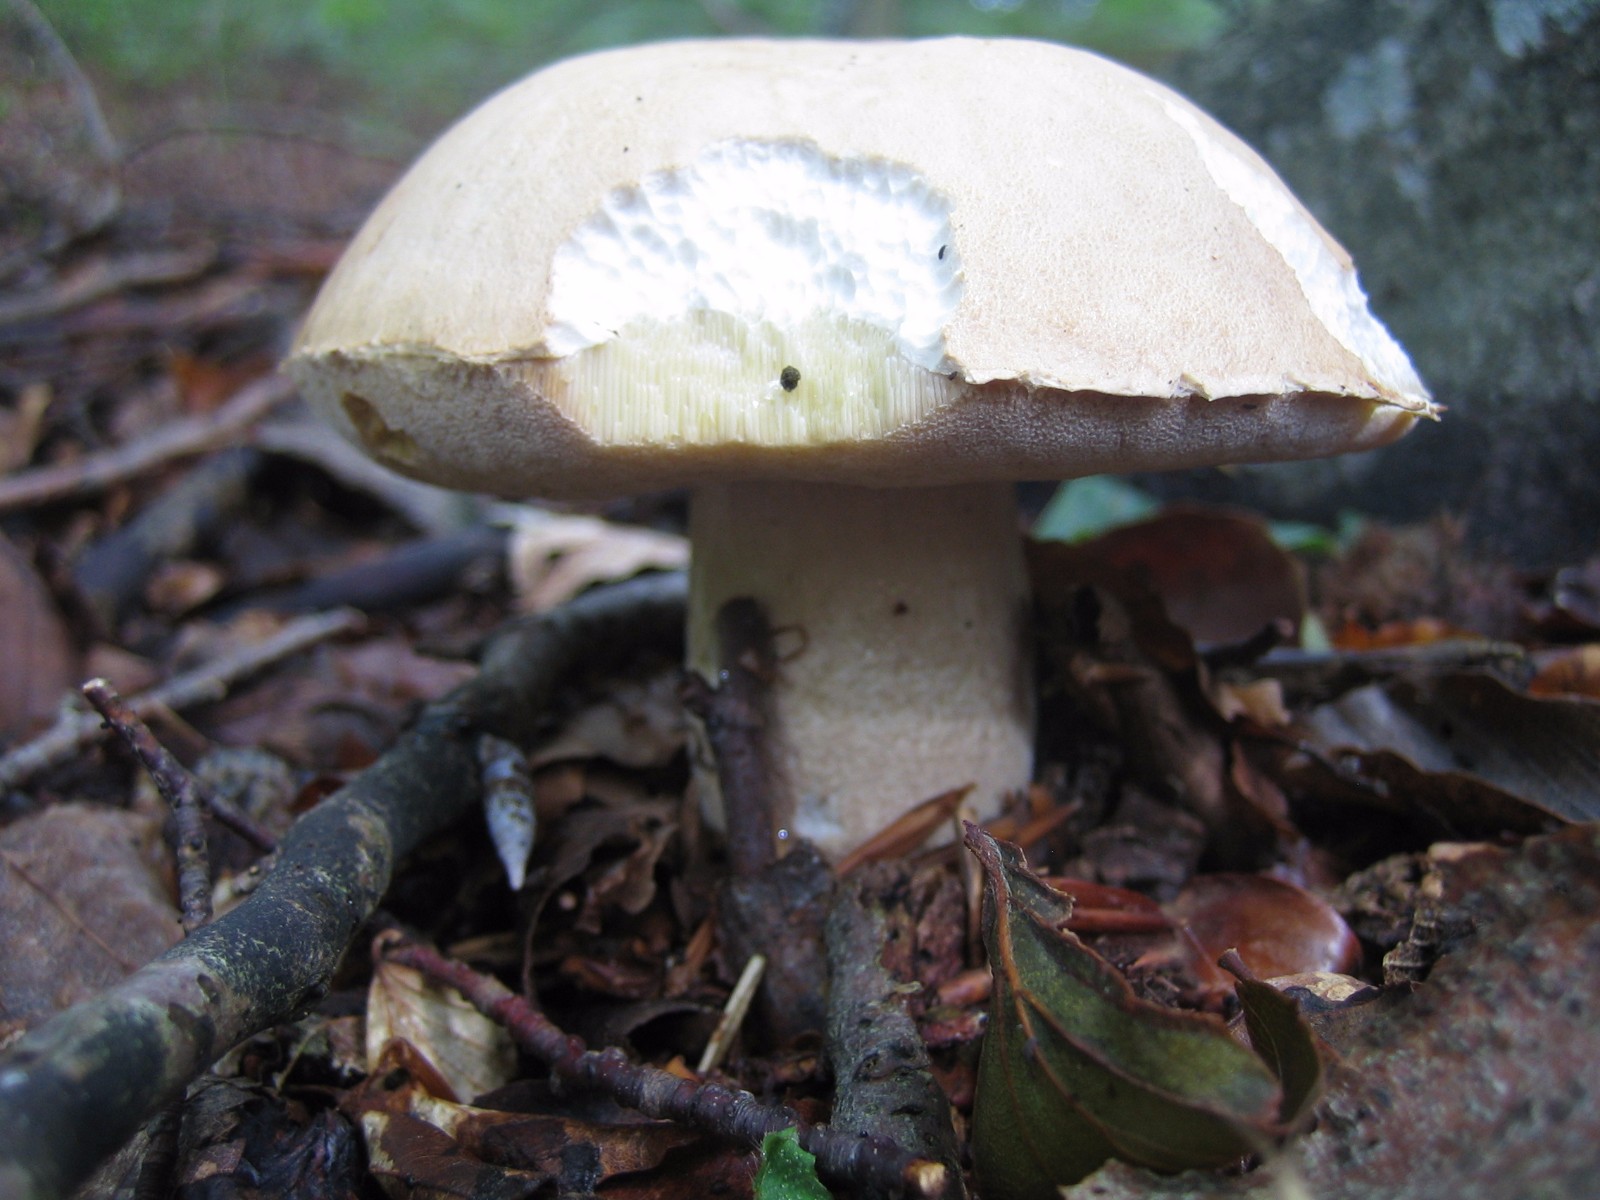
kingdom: Fungi
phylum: Basidiomycota
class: Agaricomycetes
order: Boletales
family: Boletaceae
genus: Boletus
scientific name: Boletus reticulatus
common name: sommer-rørhat
